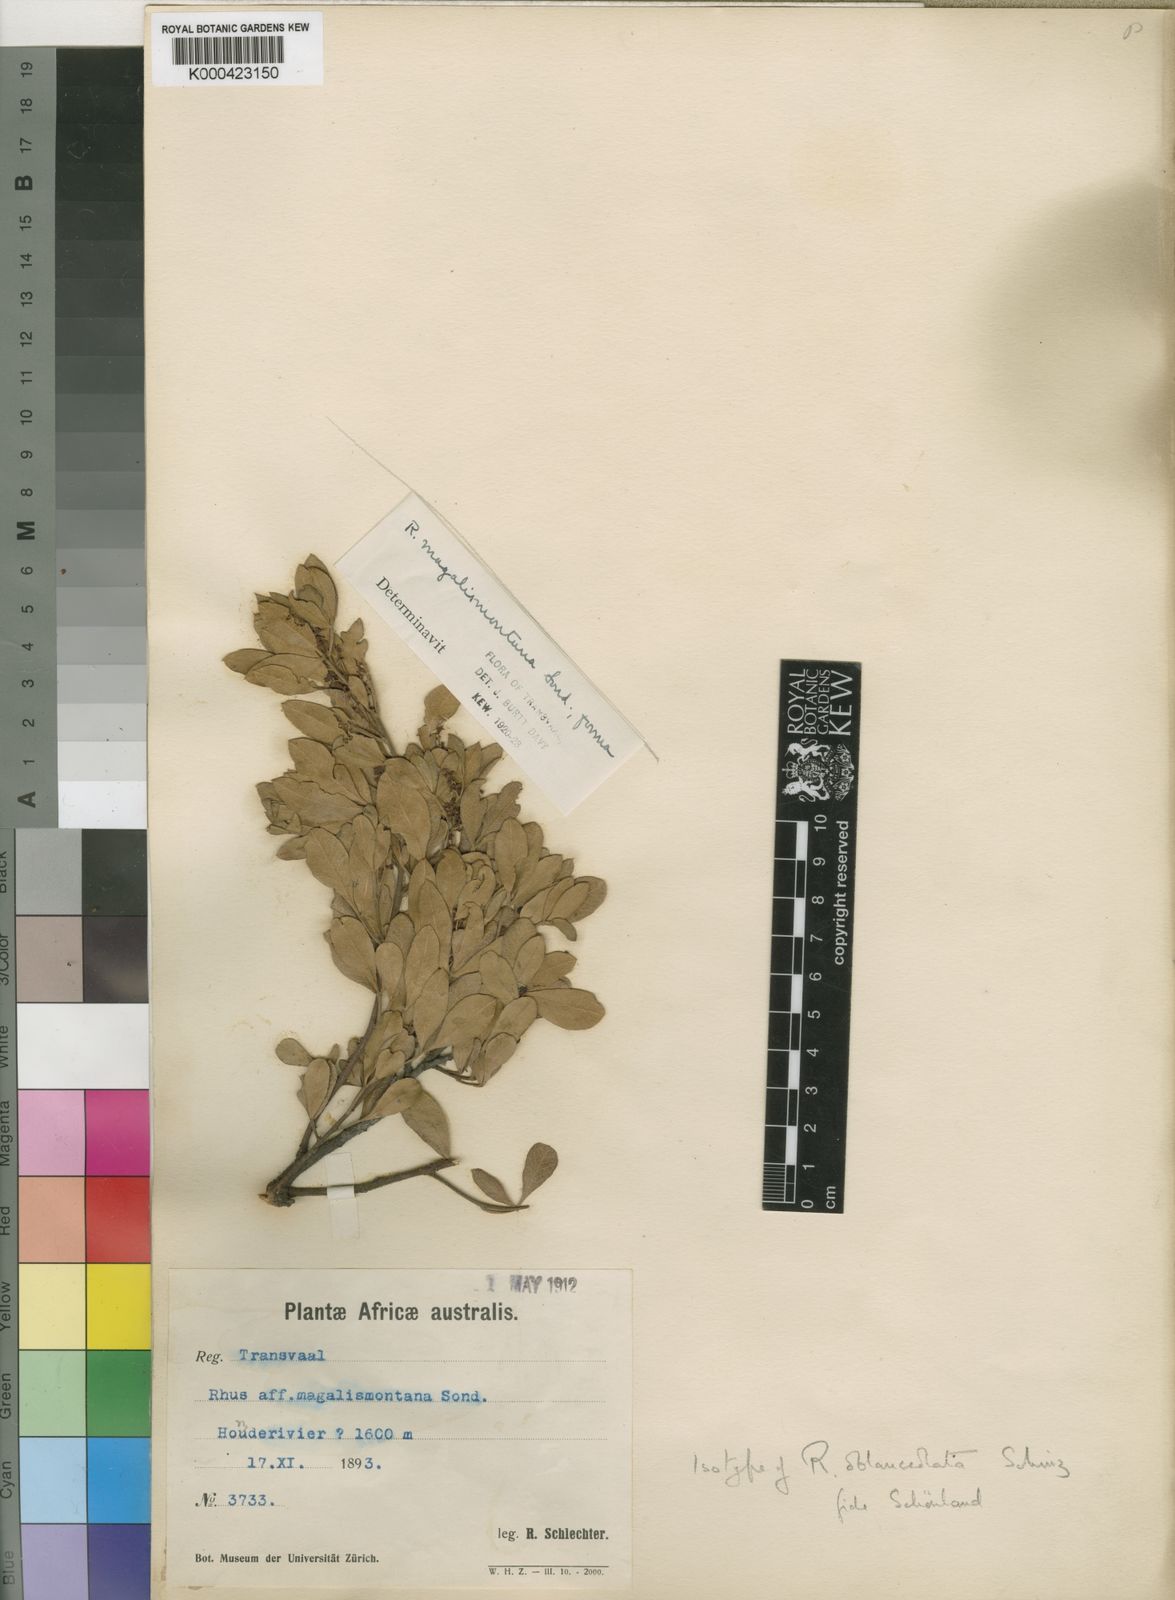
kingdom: Plantae
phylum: Tracheophyta
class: Magnoliopsida
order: Sapindales
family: Anacardiaceae
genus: Searsia
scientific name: Searsia magalismontana
